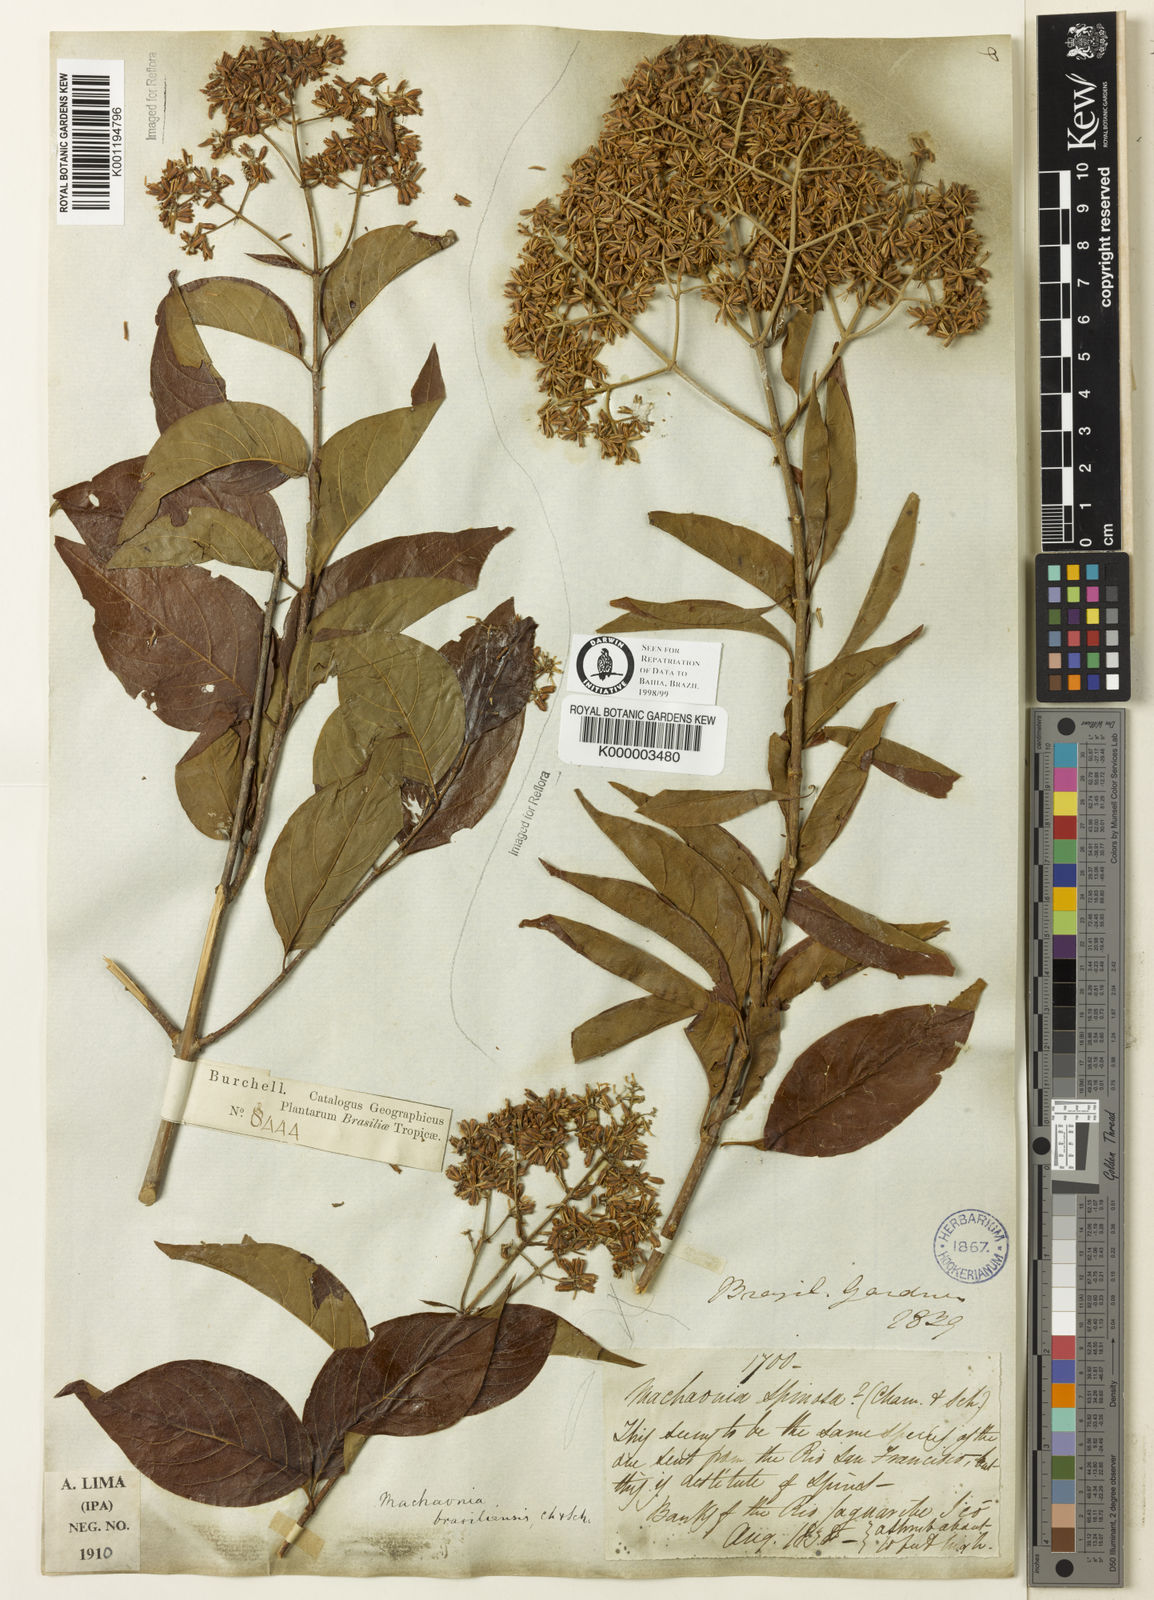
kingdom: Plantae
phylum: Tracheophyta
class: Magnoliopsida
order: Gentianales
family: Rubiaceae
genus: Machaonia
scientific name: Machaonia brasiliensis
